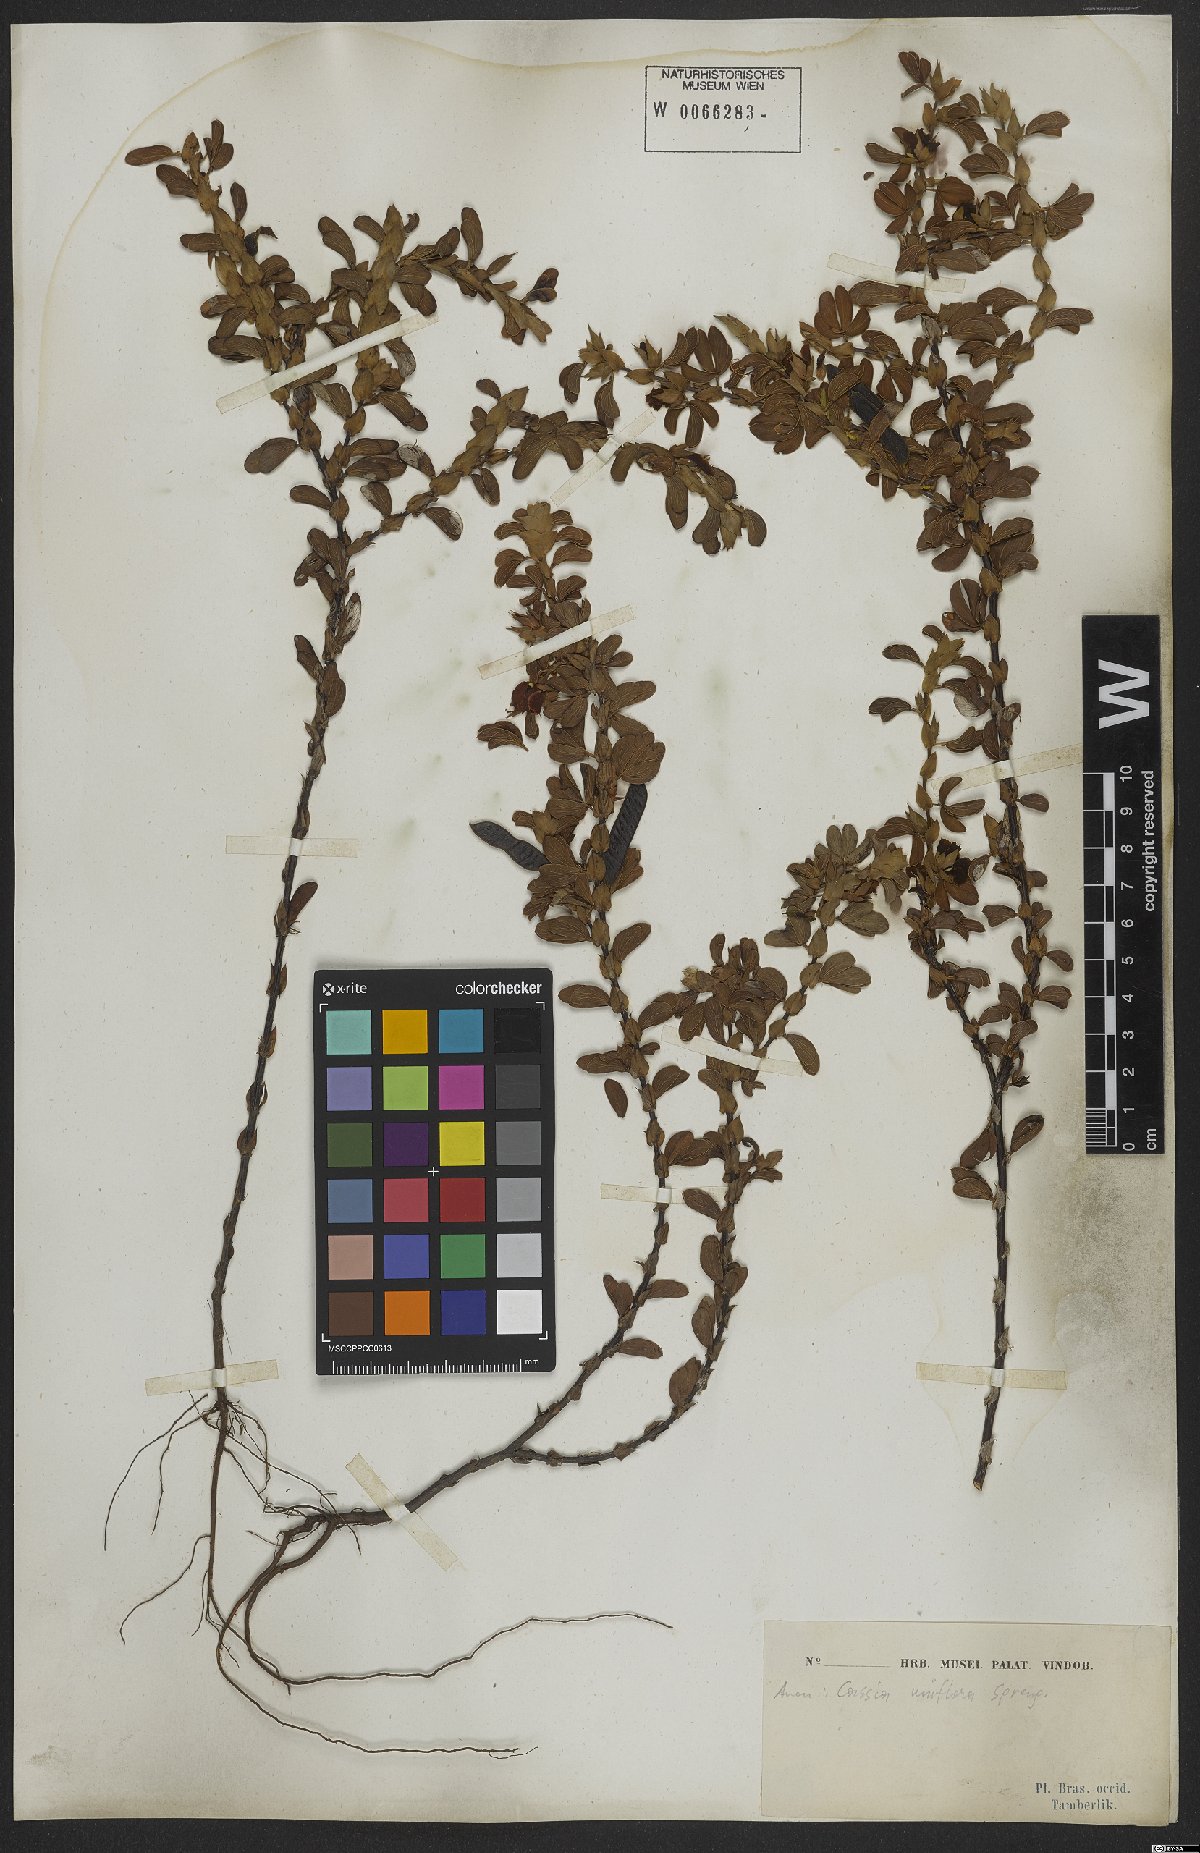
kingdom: Plantae
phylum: Tracheophyta
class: Magnoliopsida
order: Fabales
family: Fabaceae
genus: Senna
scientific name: Senna uniflora
